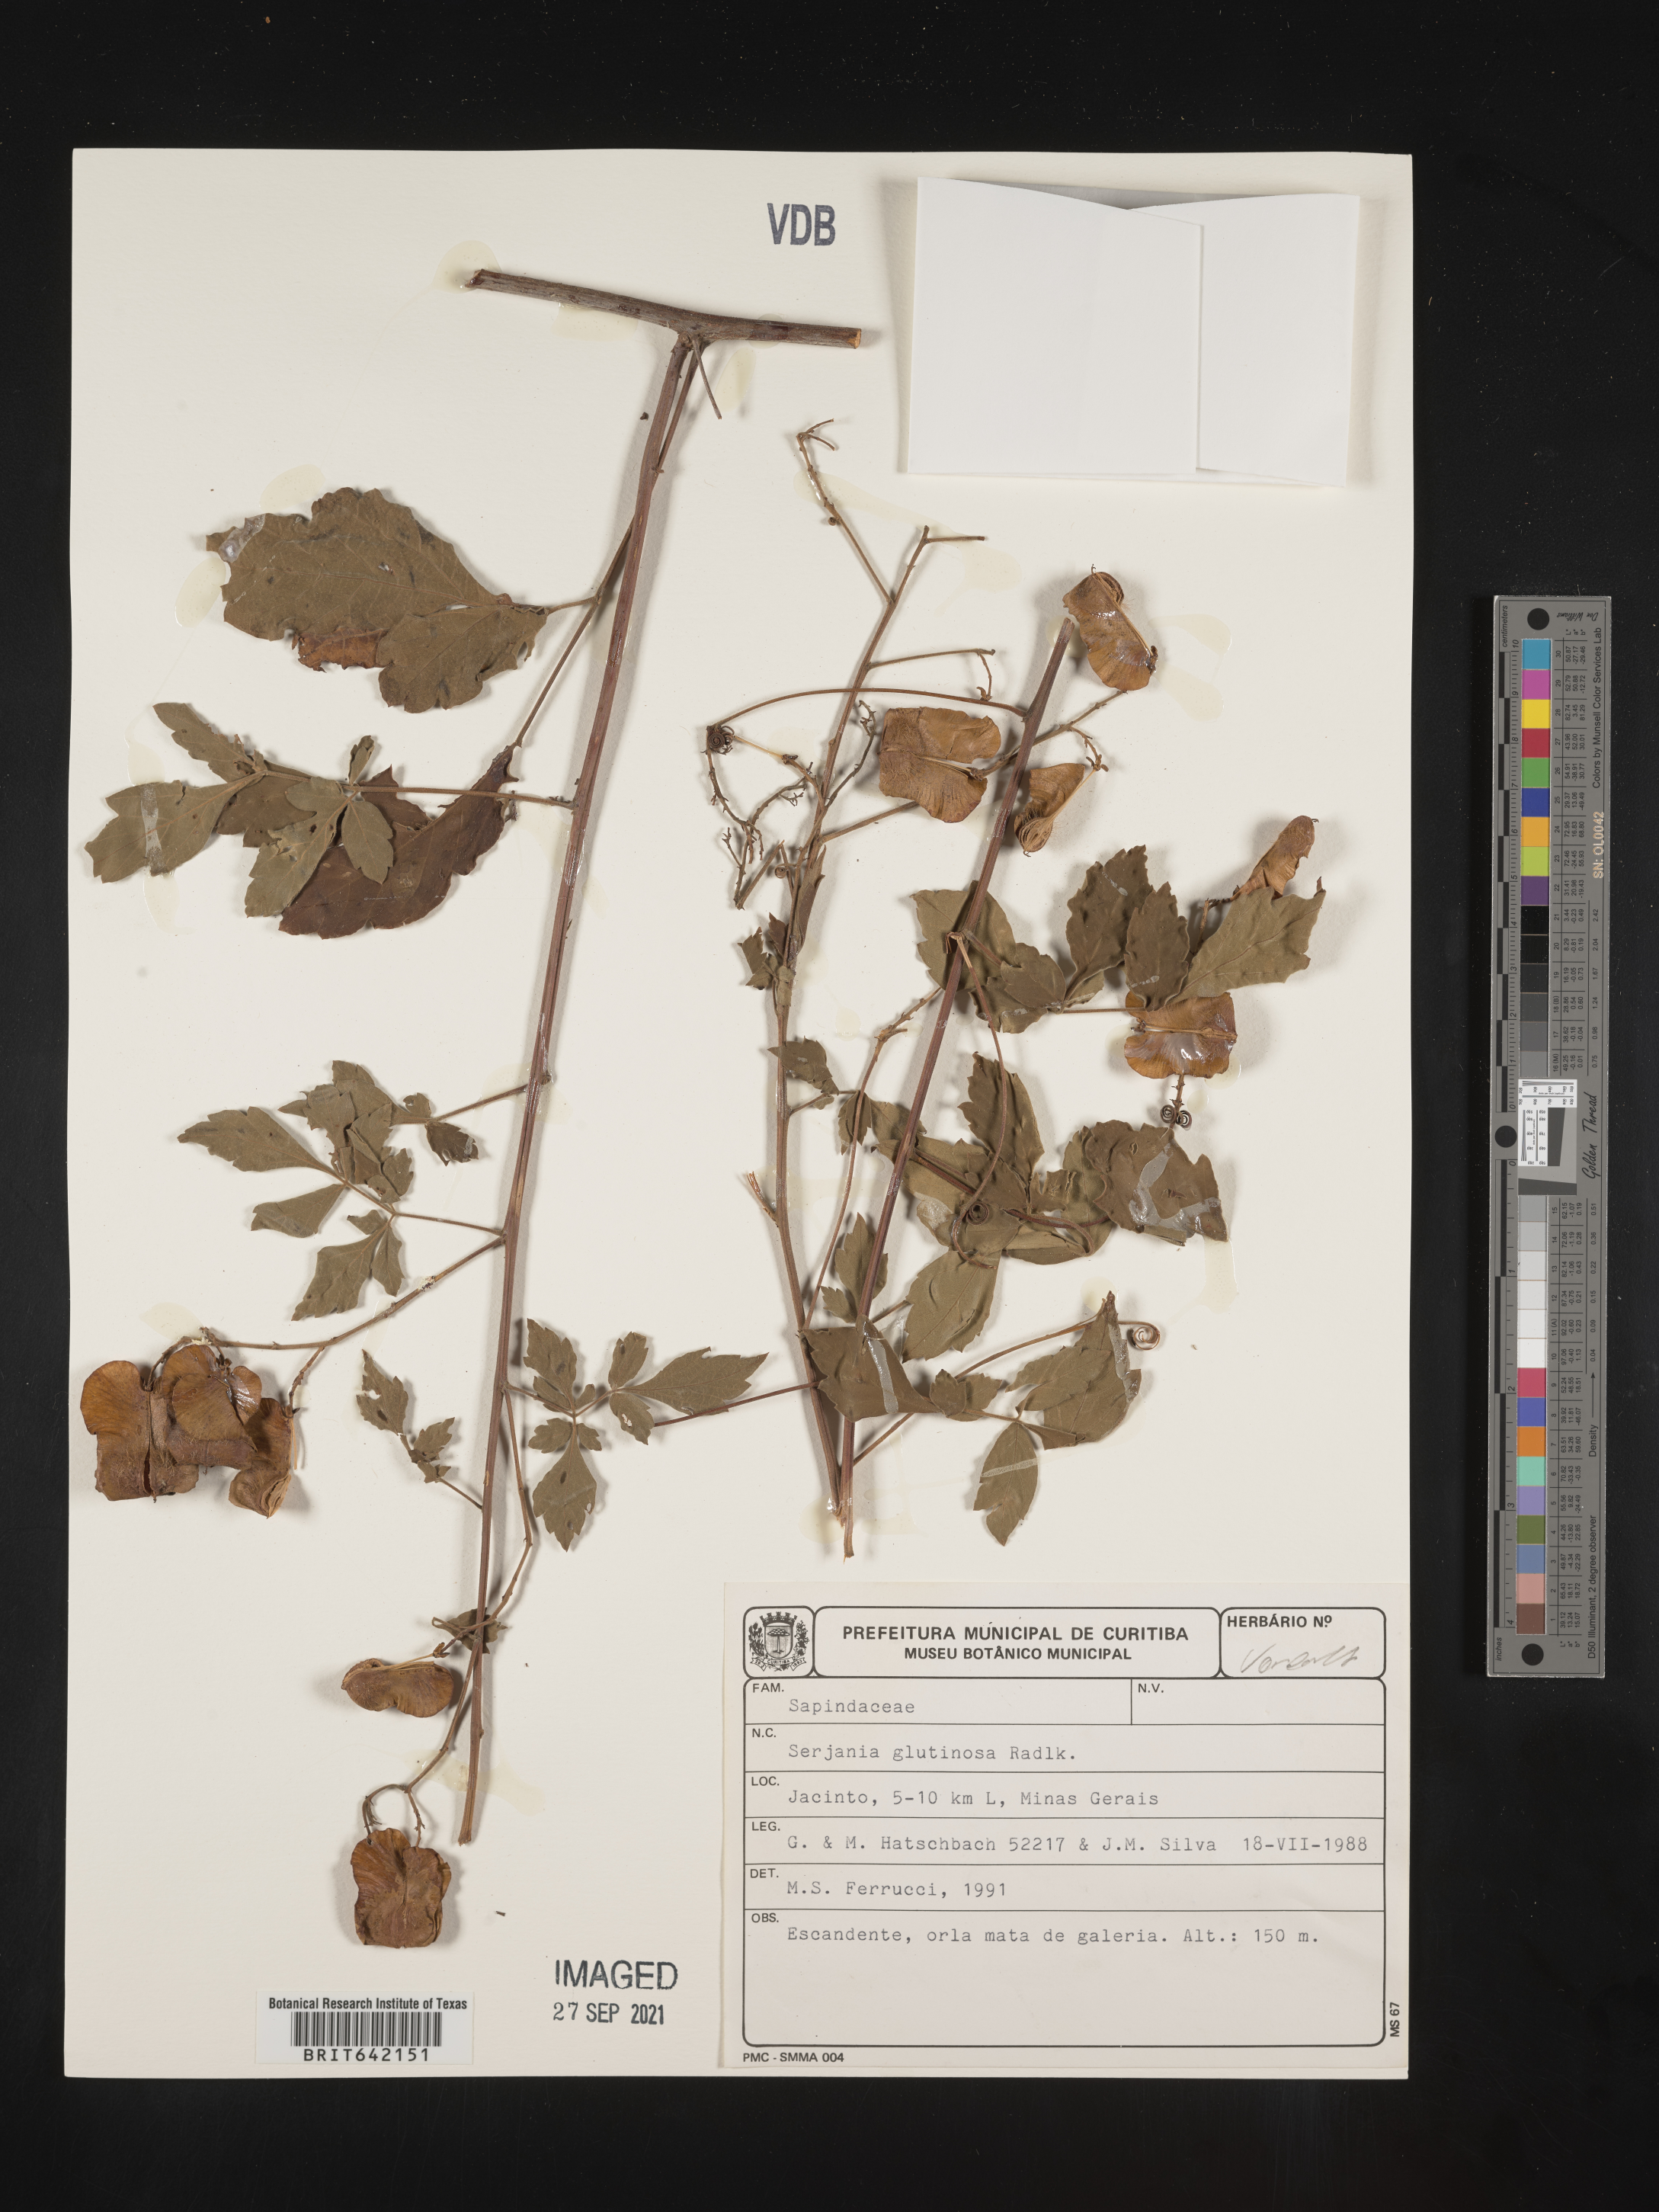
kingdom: Plantae
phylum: Tracheophyta
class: Magnoliopsida
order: Sapindales
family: Sapindaceae
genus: Serjania
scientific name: Serjania
